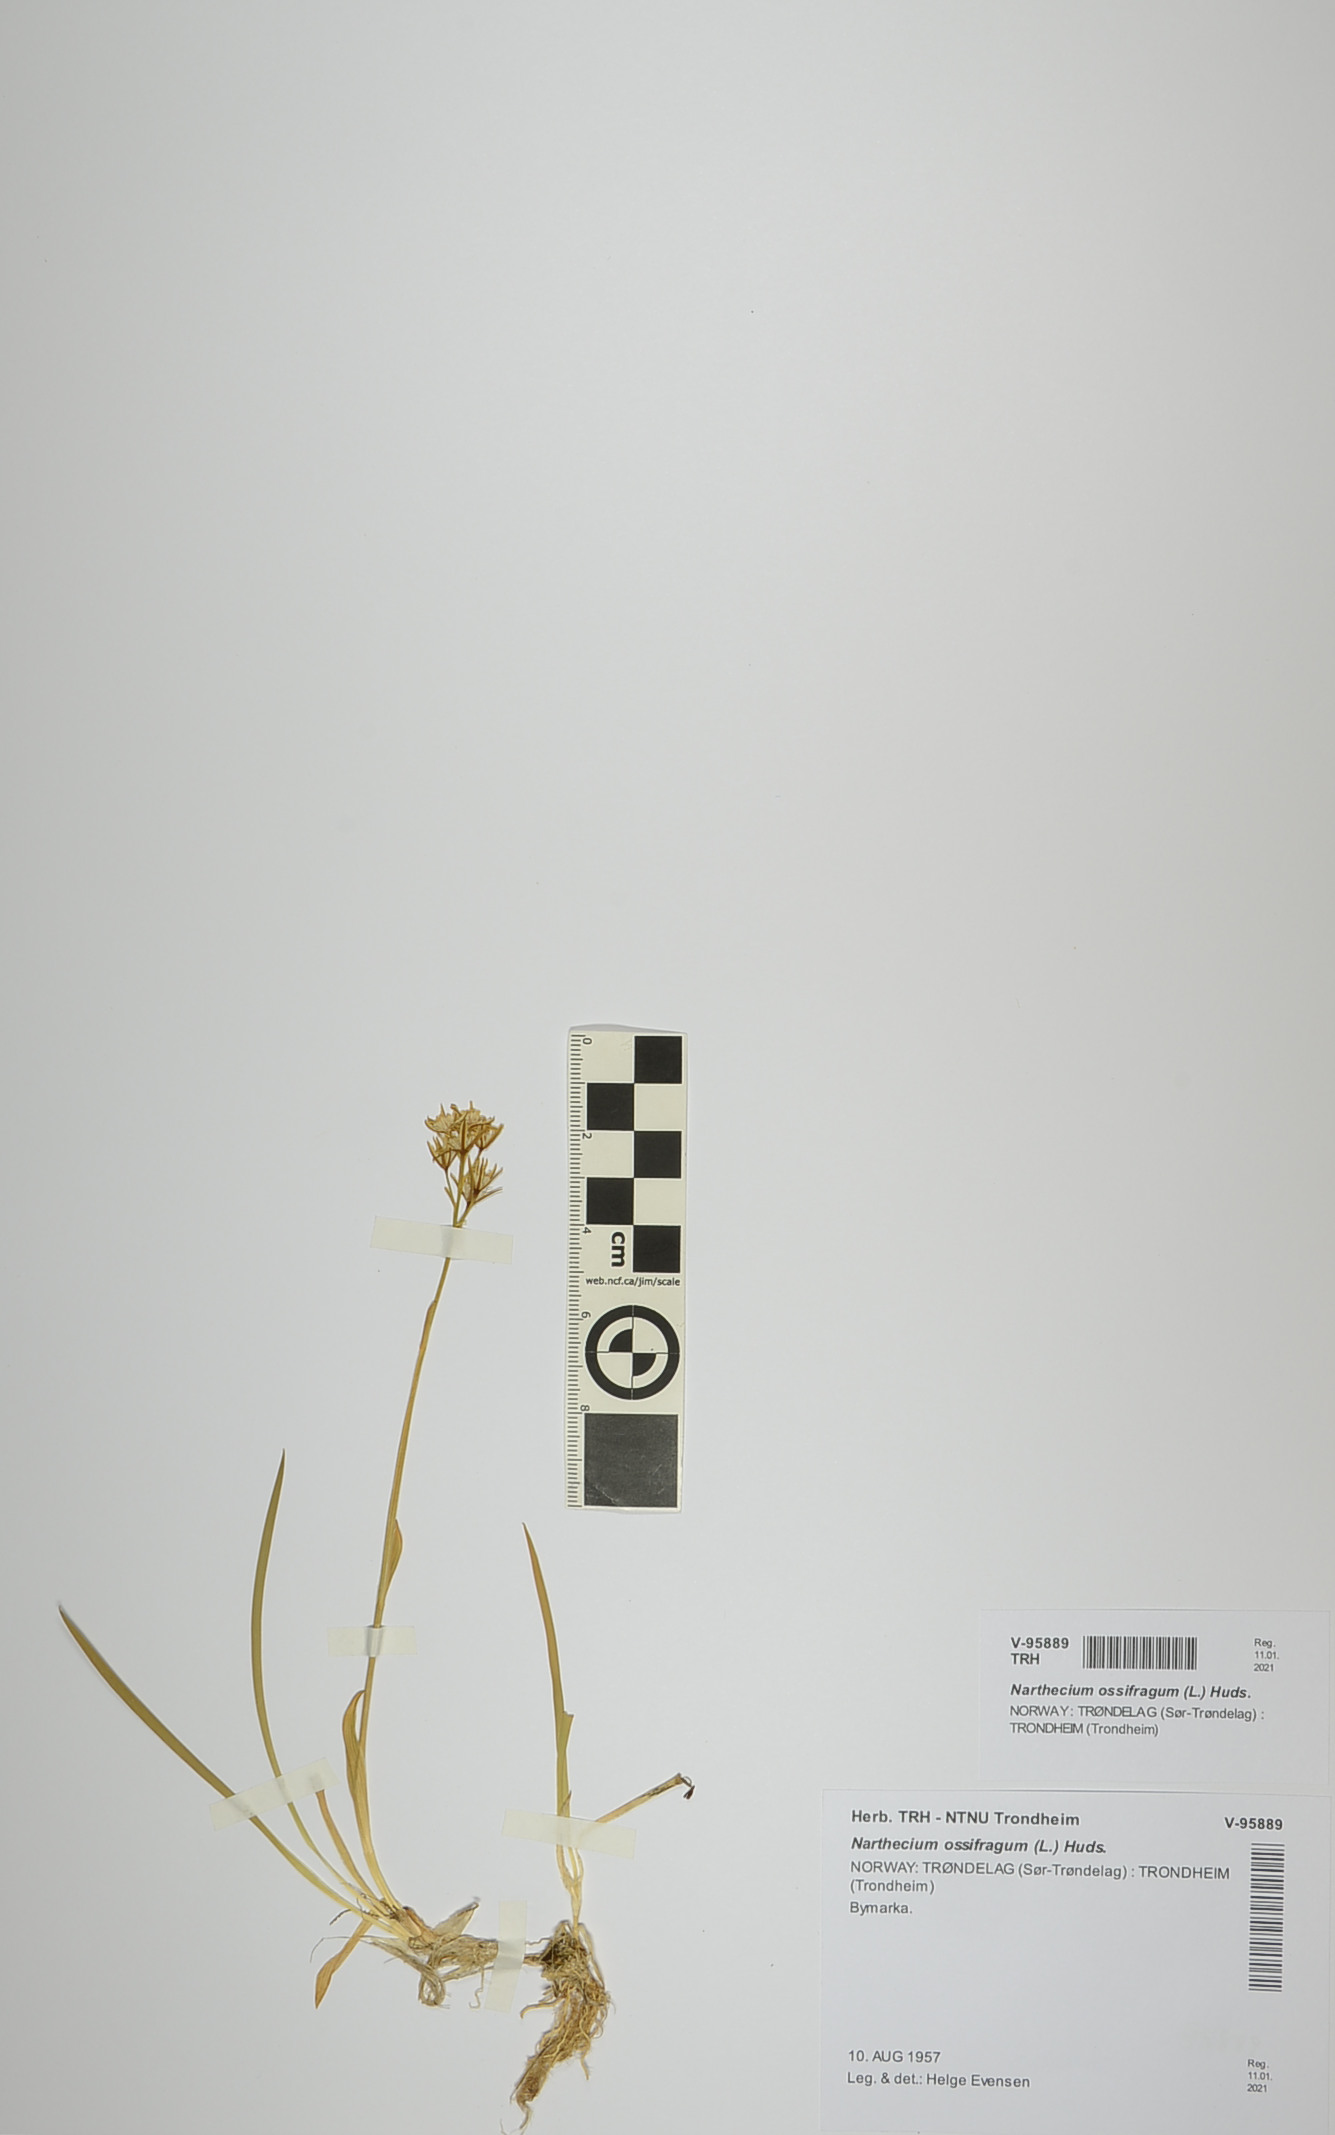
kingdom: Plantae
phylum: Tracheophyta
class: Liliopsida
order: Dioscoreales
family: Nartheciaceae
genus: Narthecium
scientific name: Narthecium ossifragum
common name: Bog asphodel
